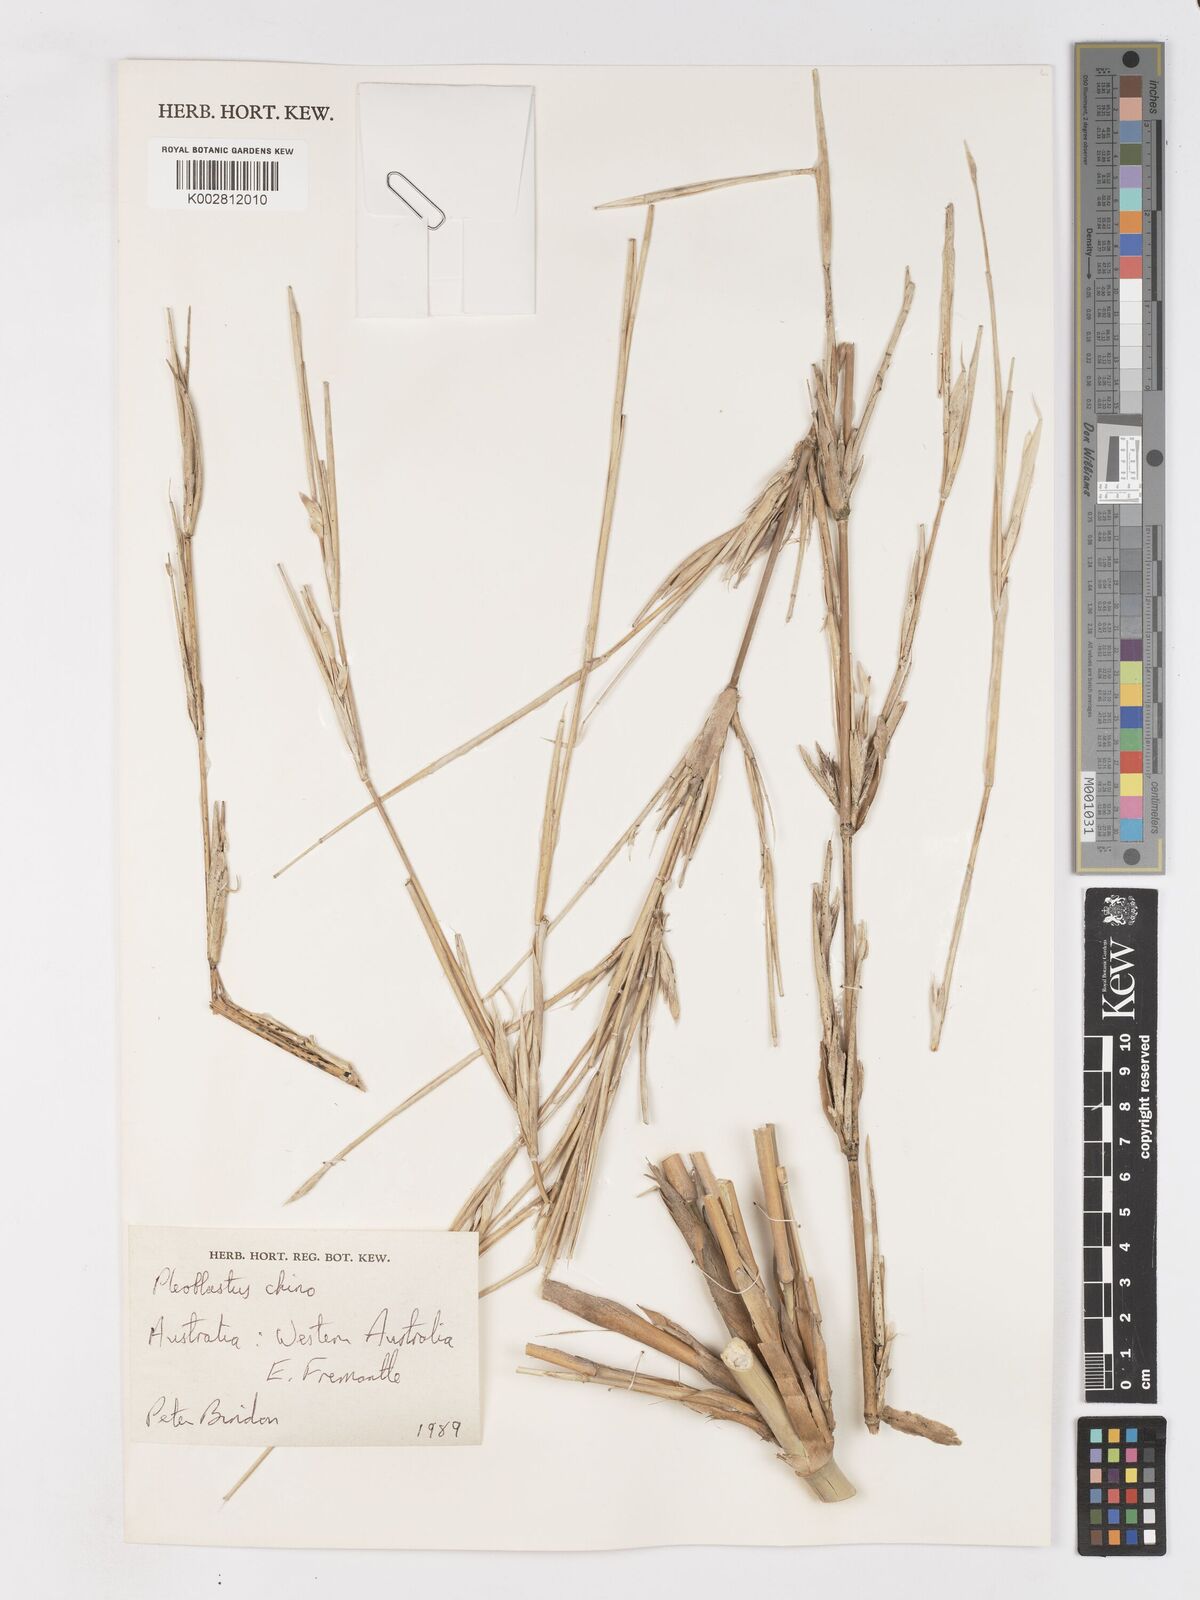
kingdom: Plantae
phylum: Tracheophyta
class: Liliopsida
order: Poales
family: Poaceae
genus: Pleioblastus
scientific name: Pleioblastus argenteostriatus
